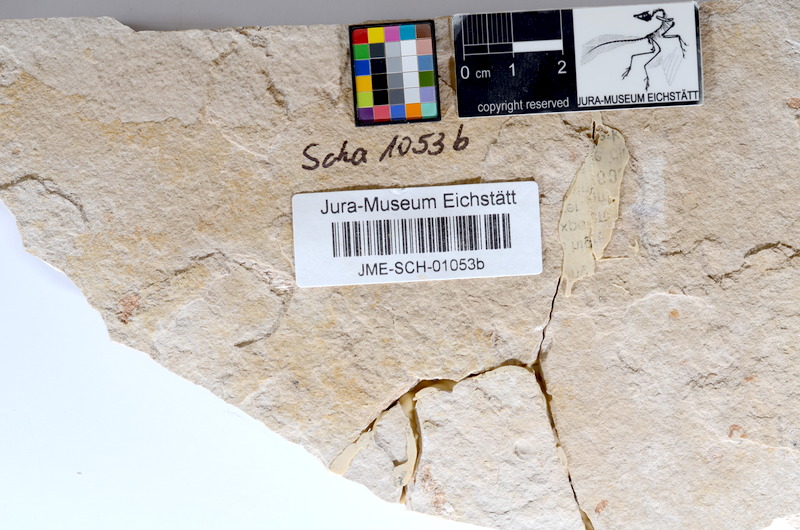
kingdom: Animalia
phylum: Chordata
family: Ascalaboidae
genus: Tharsis
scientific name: Tharsis dubius
